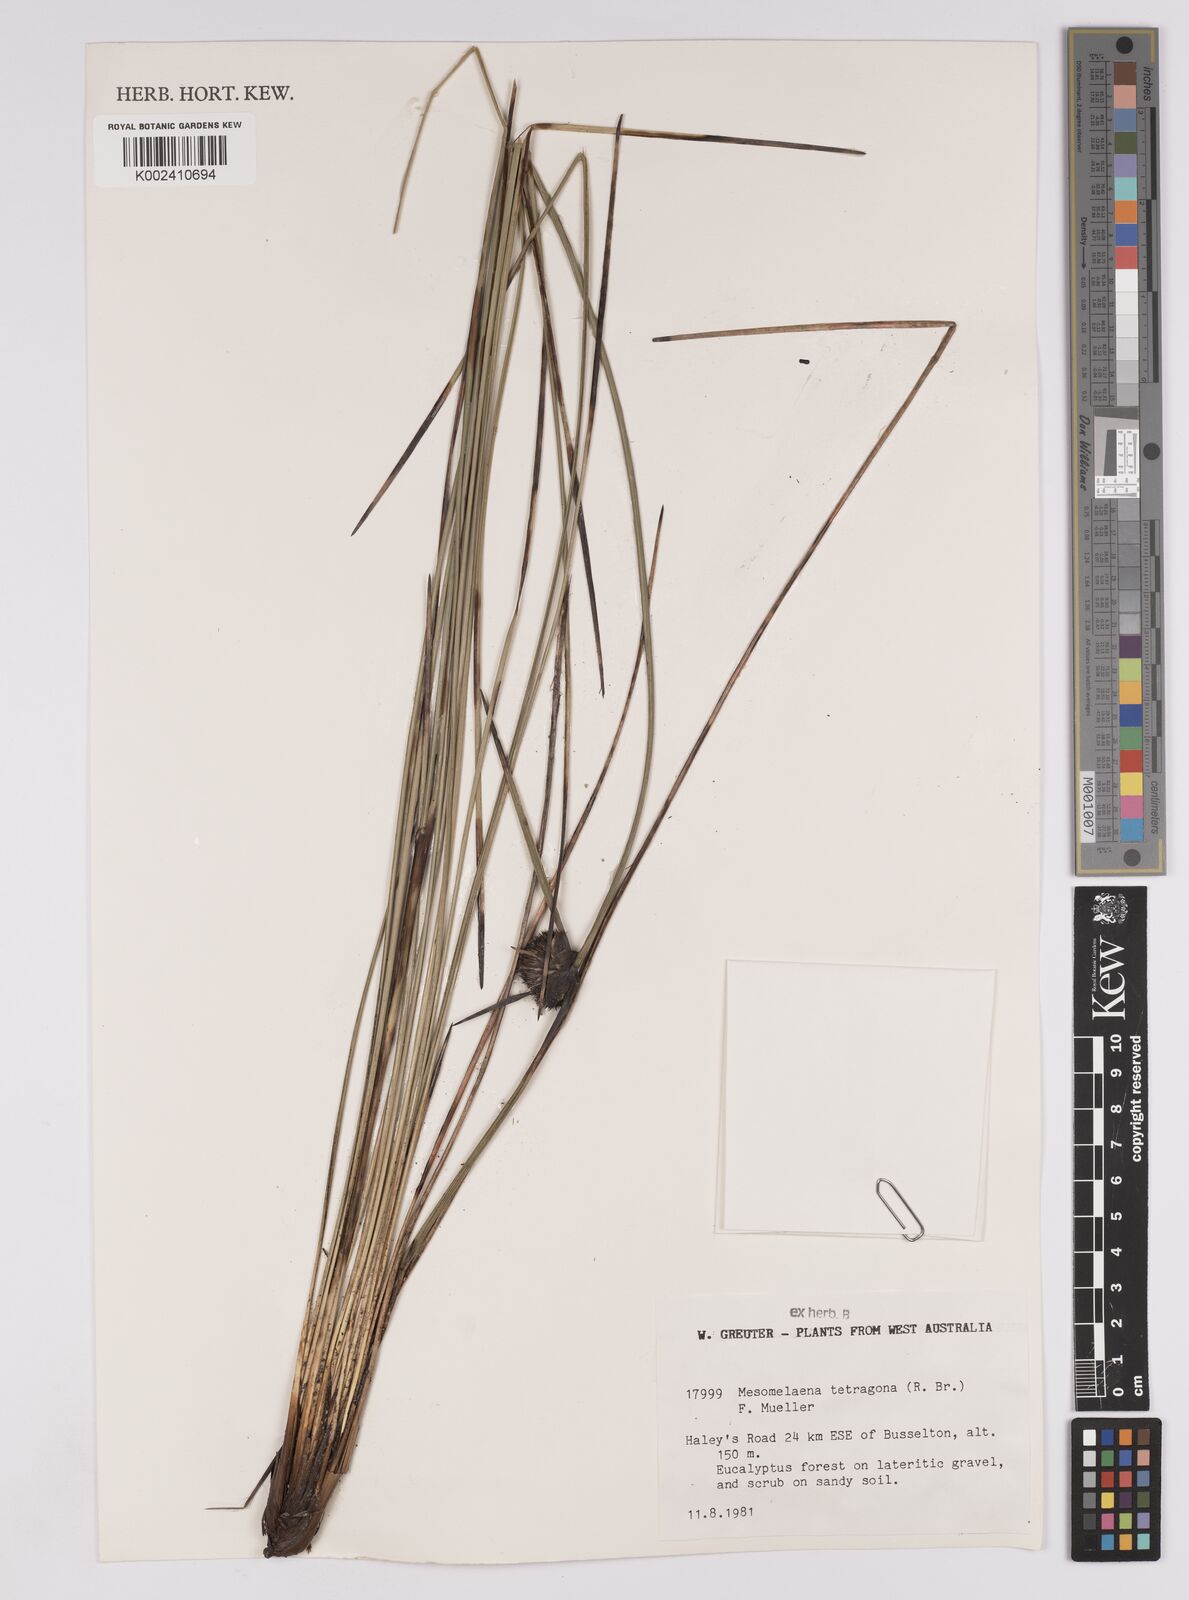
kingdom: Plantae
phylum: Tracheophyta
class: Liliopsida
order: Poales
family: Cyperaceae
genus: Mesomelaena
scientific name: Mesomelaena tetragona
